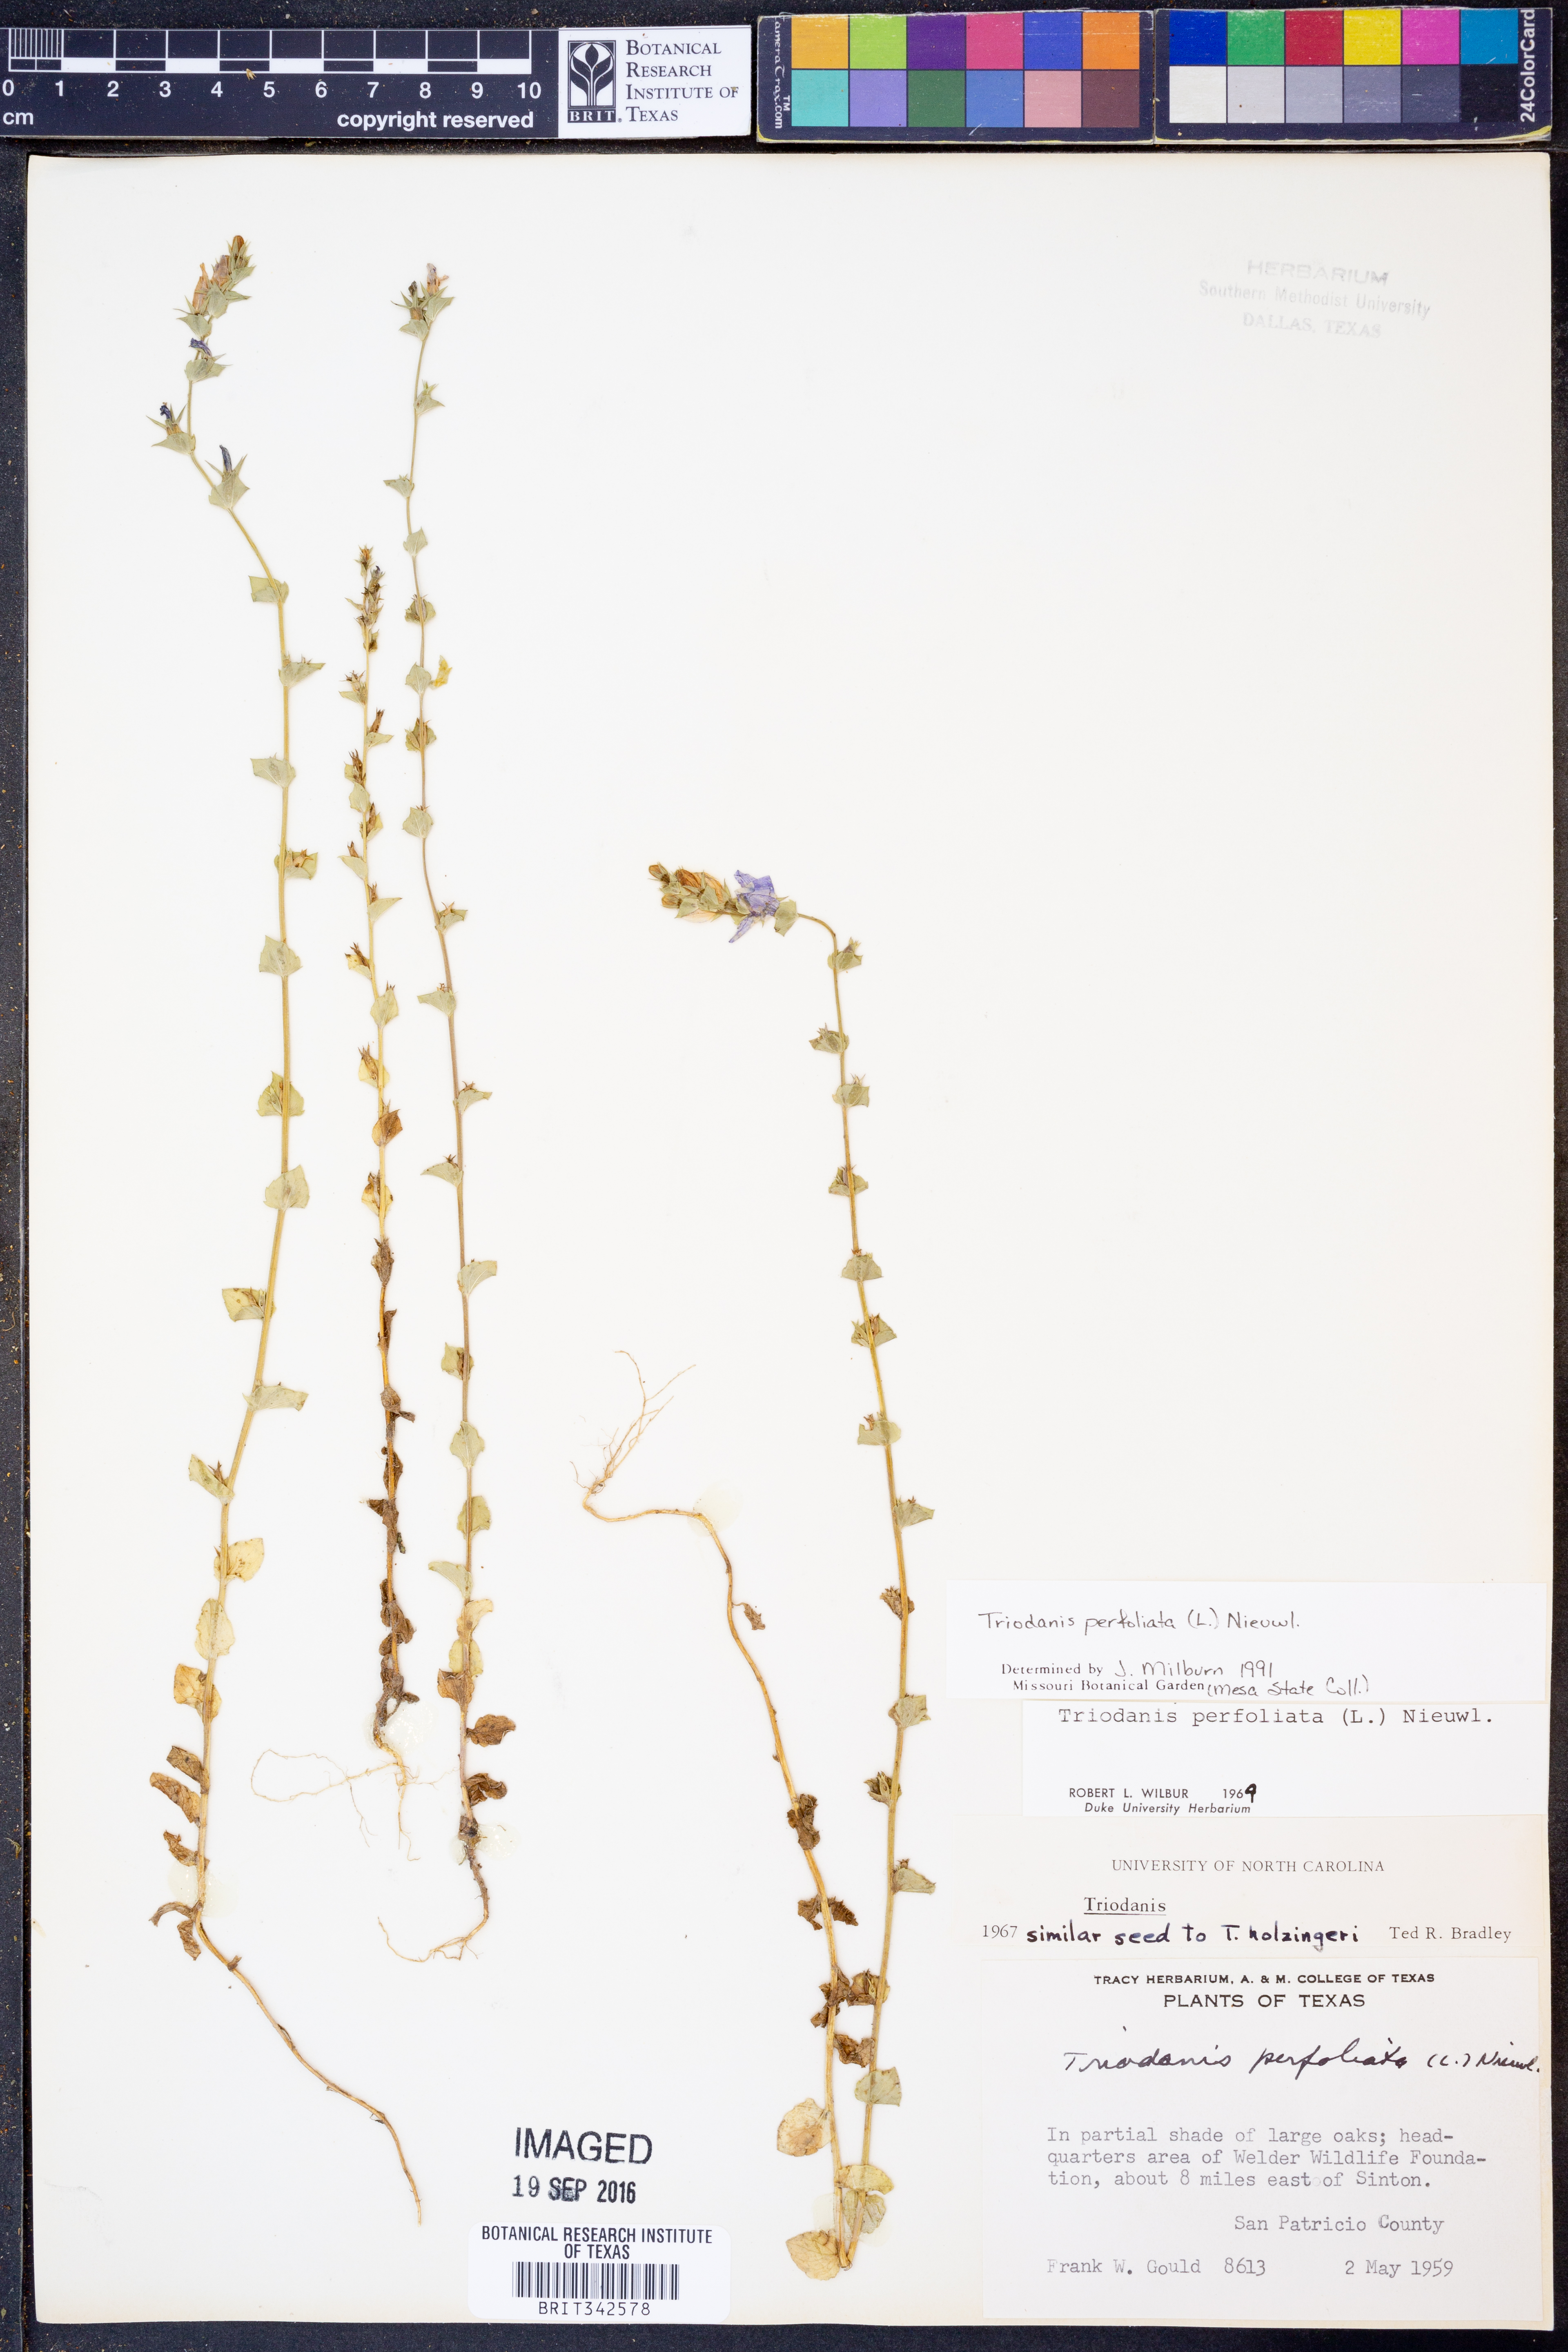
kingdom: Plantae
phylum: Tracheophyta
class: Magnoliopsida
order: Asterales
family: Campanulaceae
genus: Triodanis
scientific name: Triodanis perfoliata
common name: Clasping venus' looking-glass
